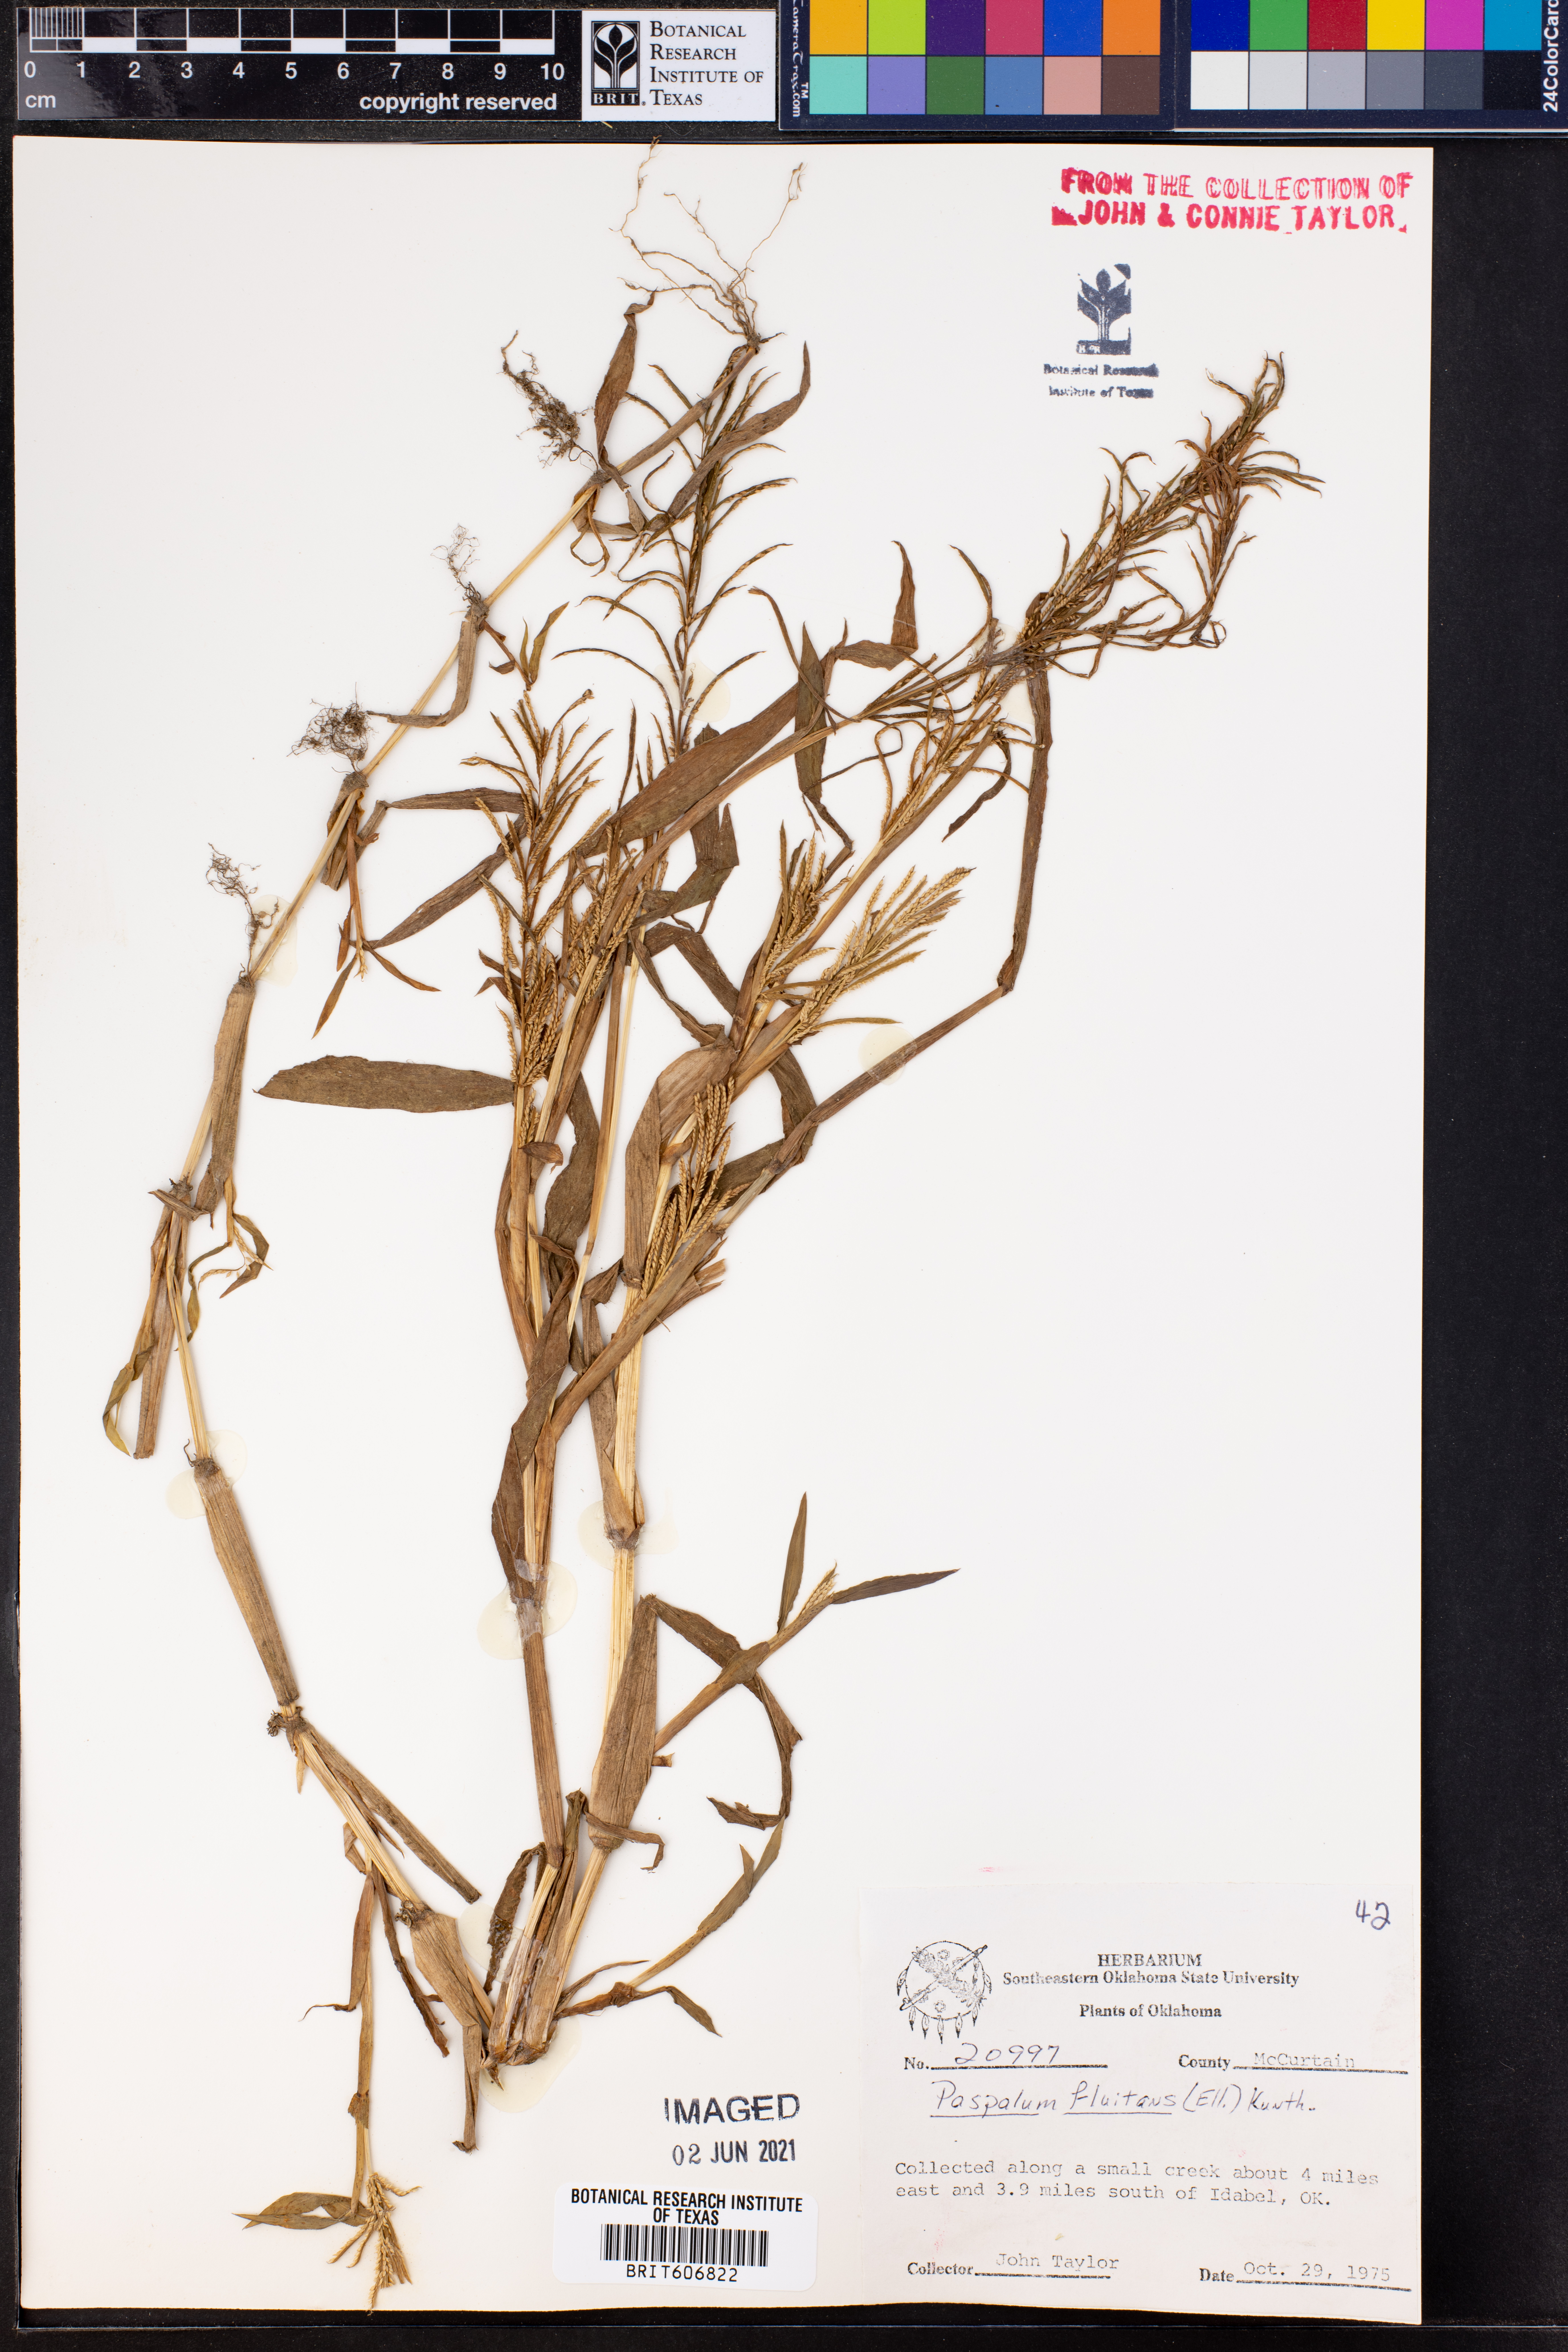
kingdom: Plantae
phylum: Tracheophyta
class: Liliopsida
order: Poales
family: Poaceae
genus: Paspalum
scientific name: Paspalum repens
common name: Water paspalum
